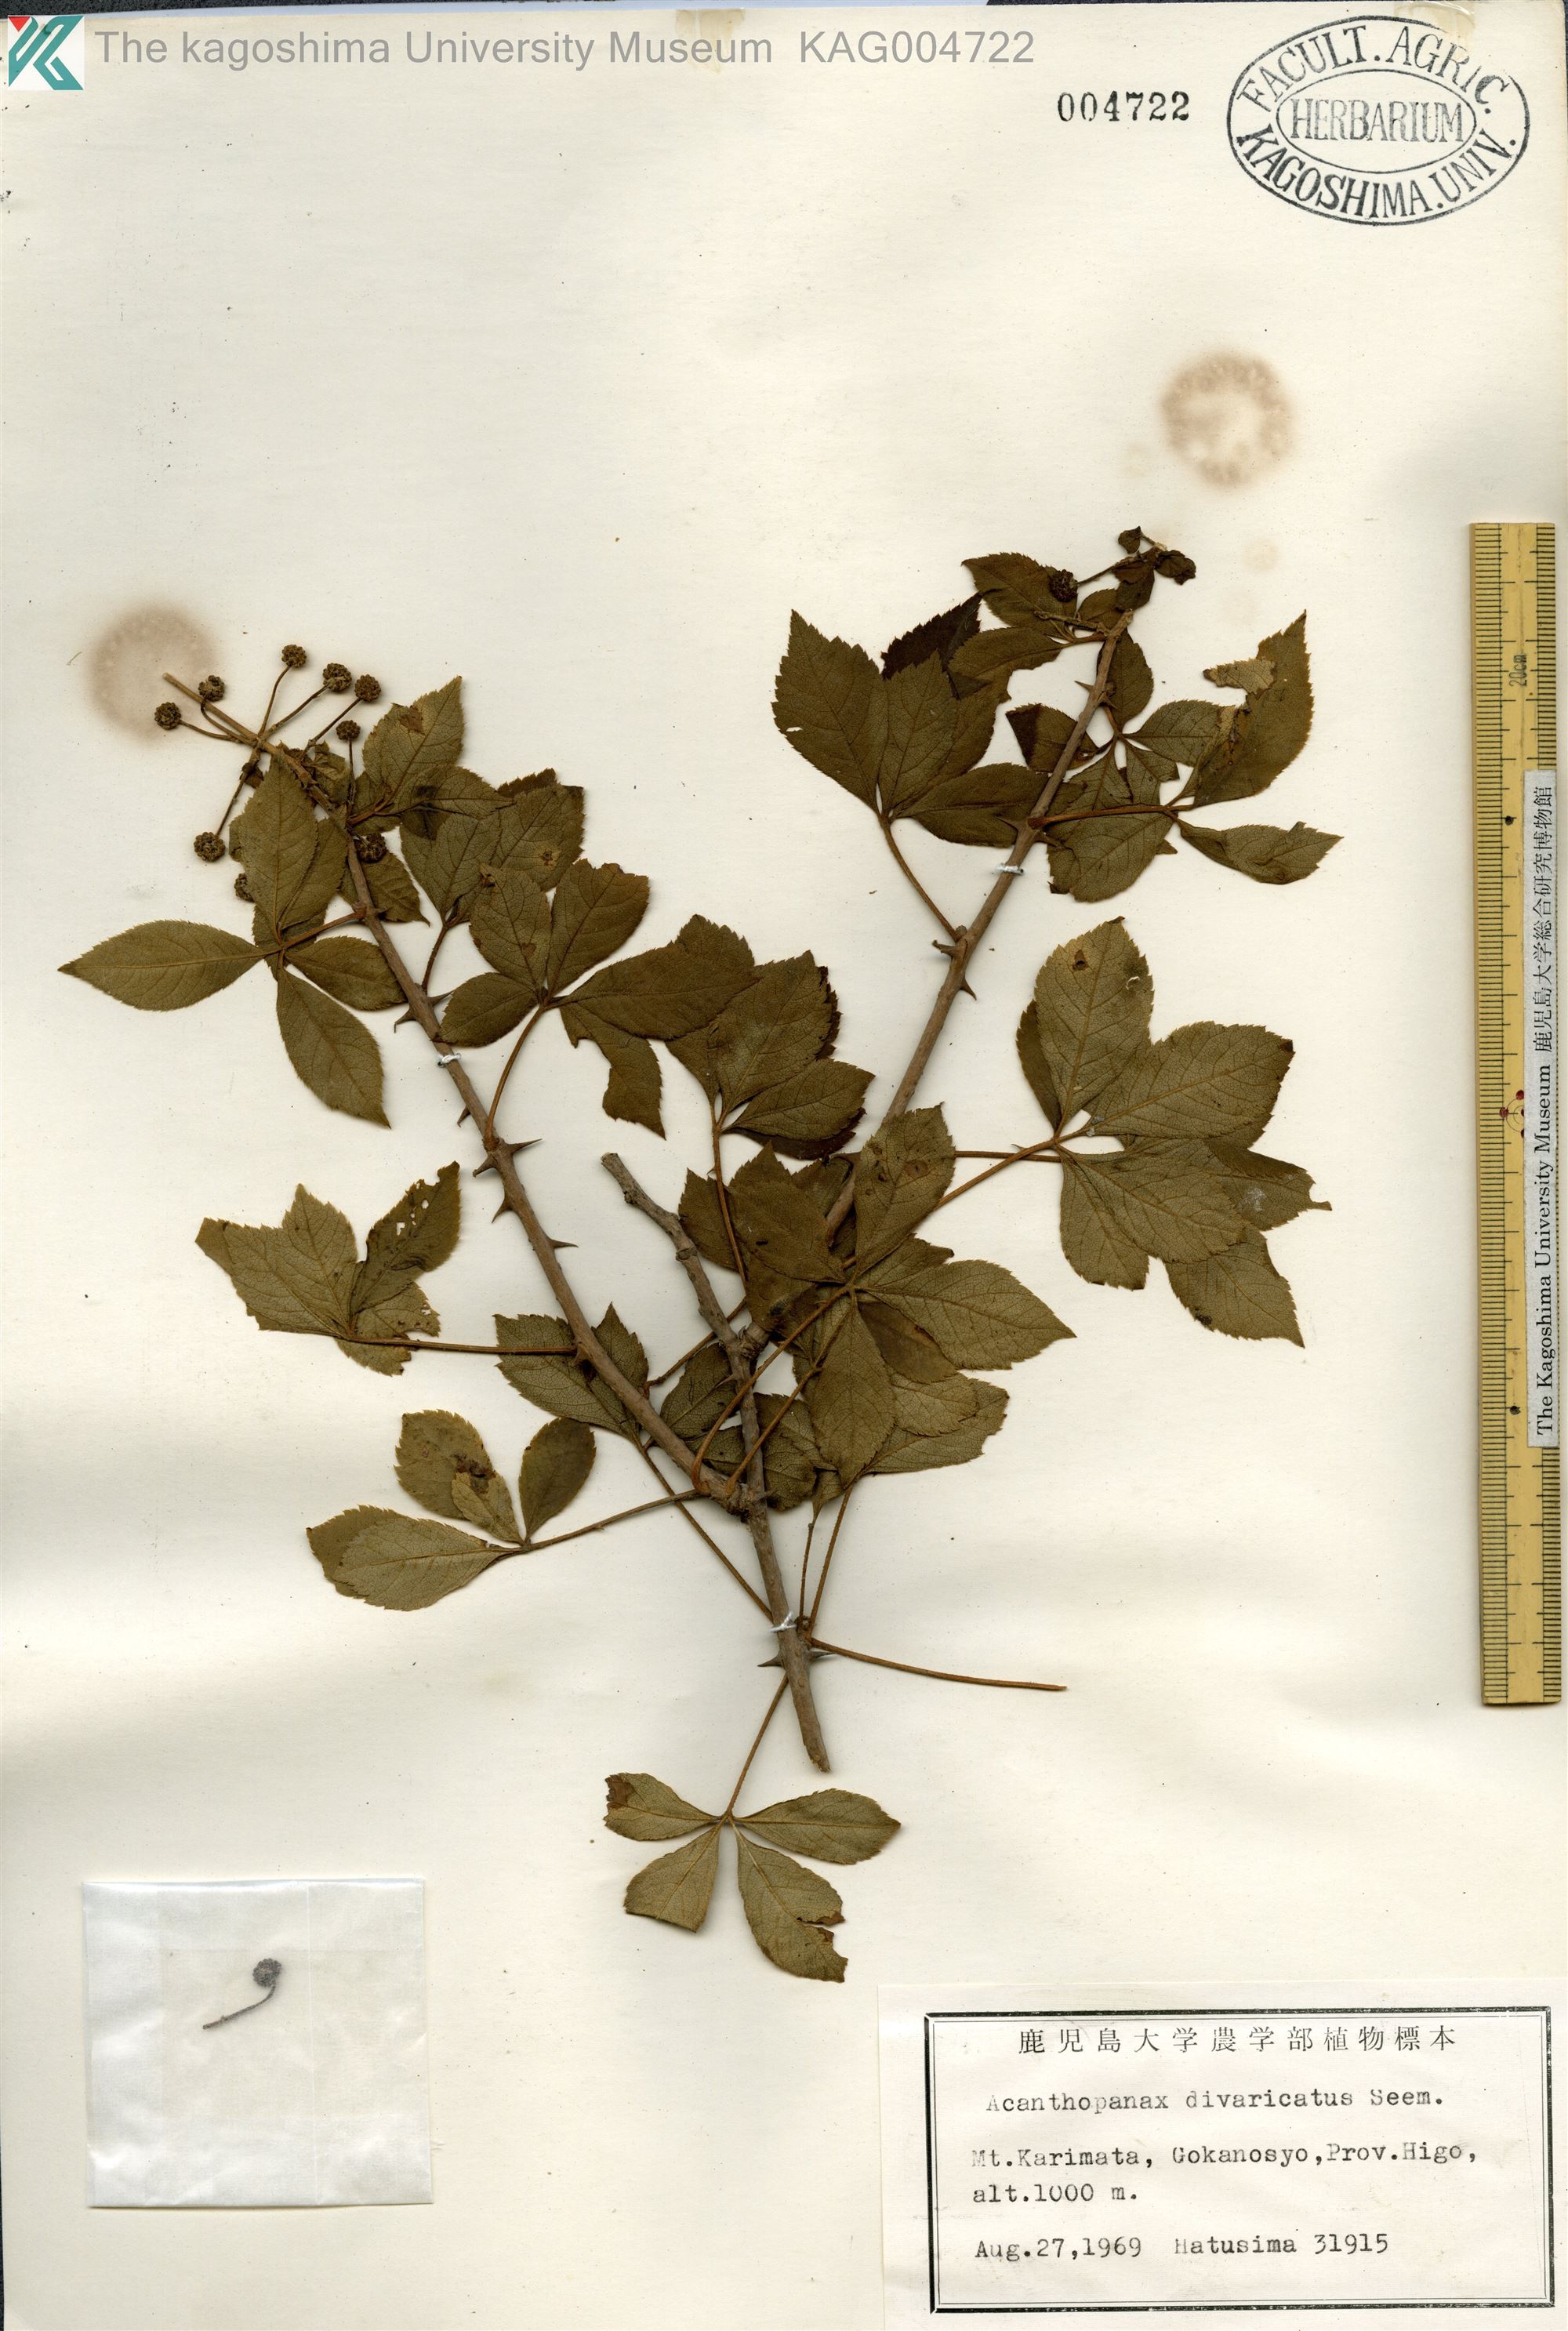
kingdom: Plantae
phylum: Tracheophyta
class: Magnoliopsida
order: Apiales
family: Araliaceae
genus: Eleutherococcus
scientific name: Eleutherococcus divaricatus
